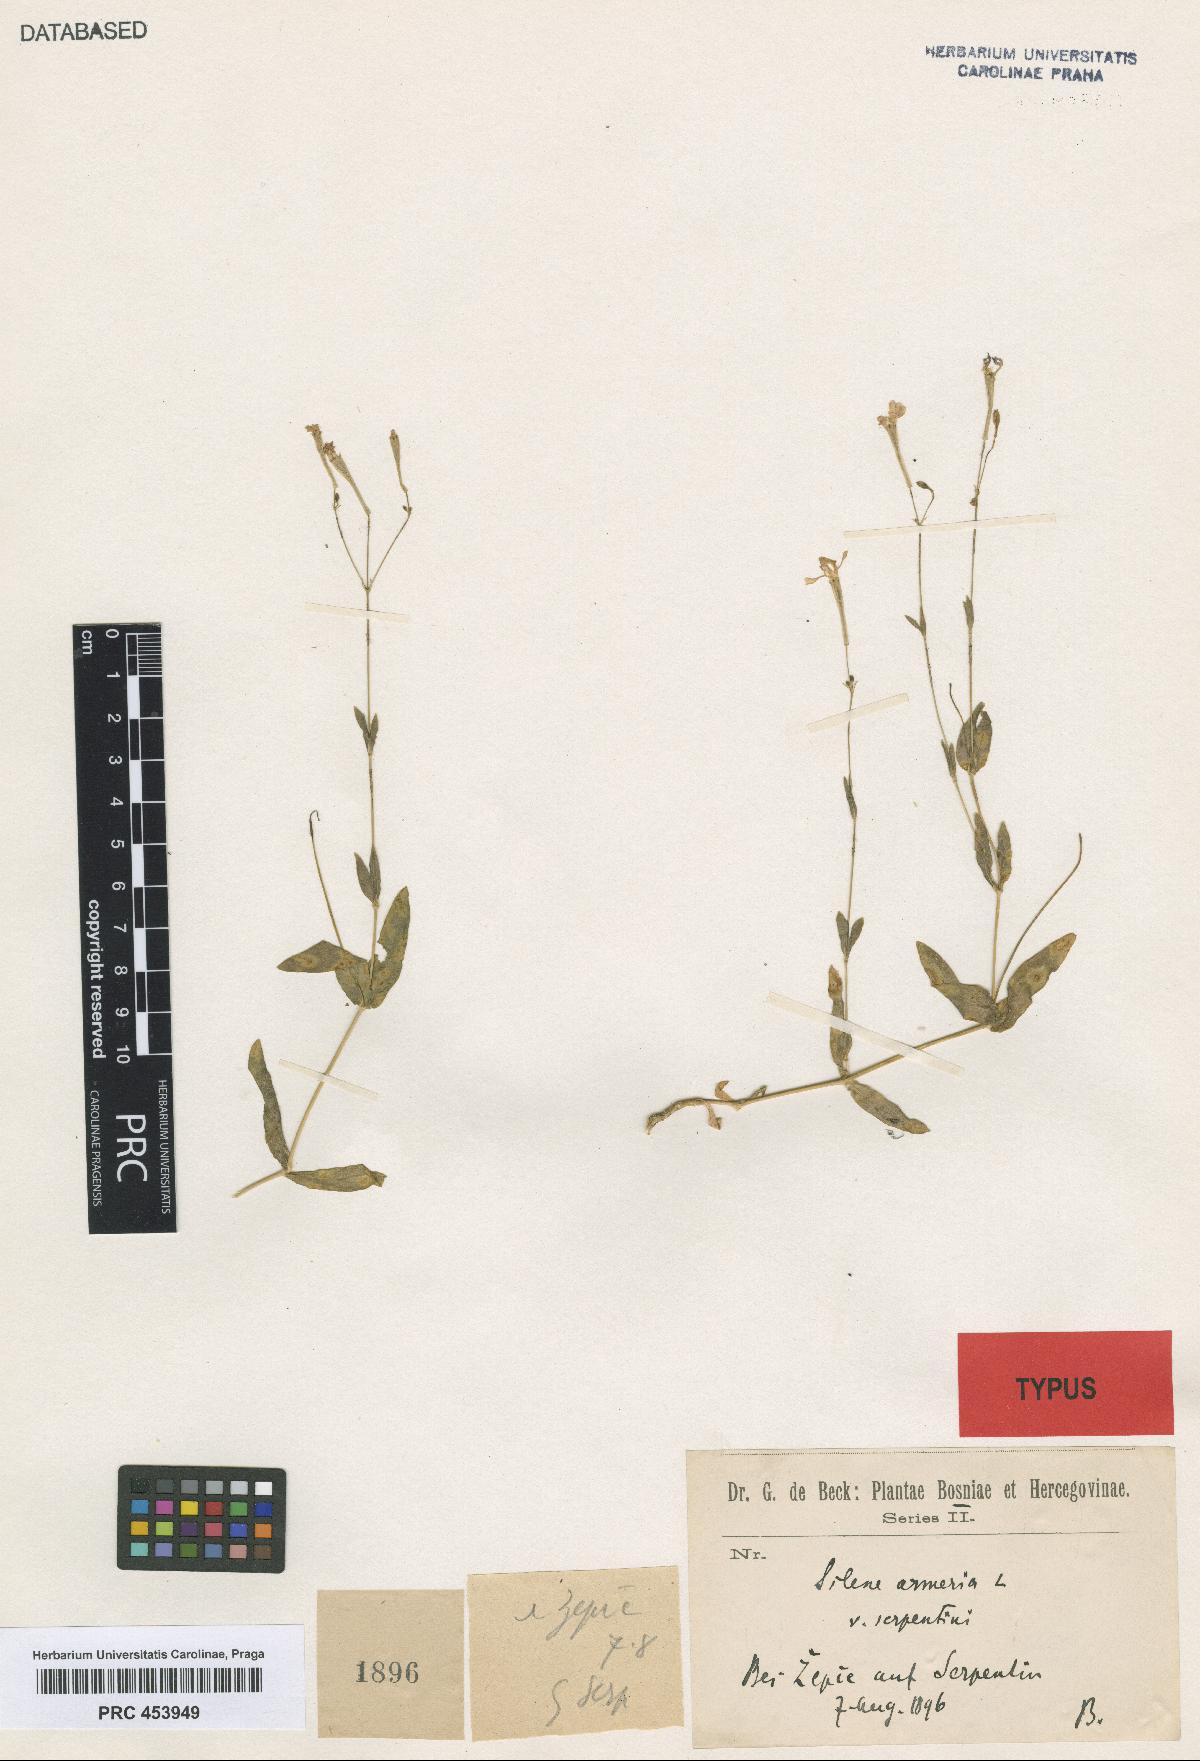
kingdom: Plantae
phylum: Tracheophyta
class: Magnoliopsida
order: Caryophyllales
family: Caryophyllaceae
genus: Atocion
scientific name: Atocion armeria
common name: Sweet william catchfly
